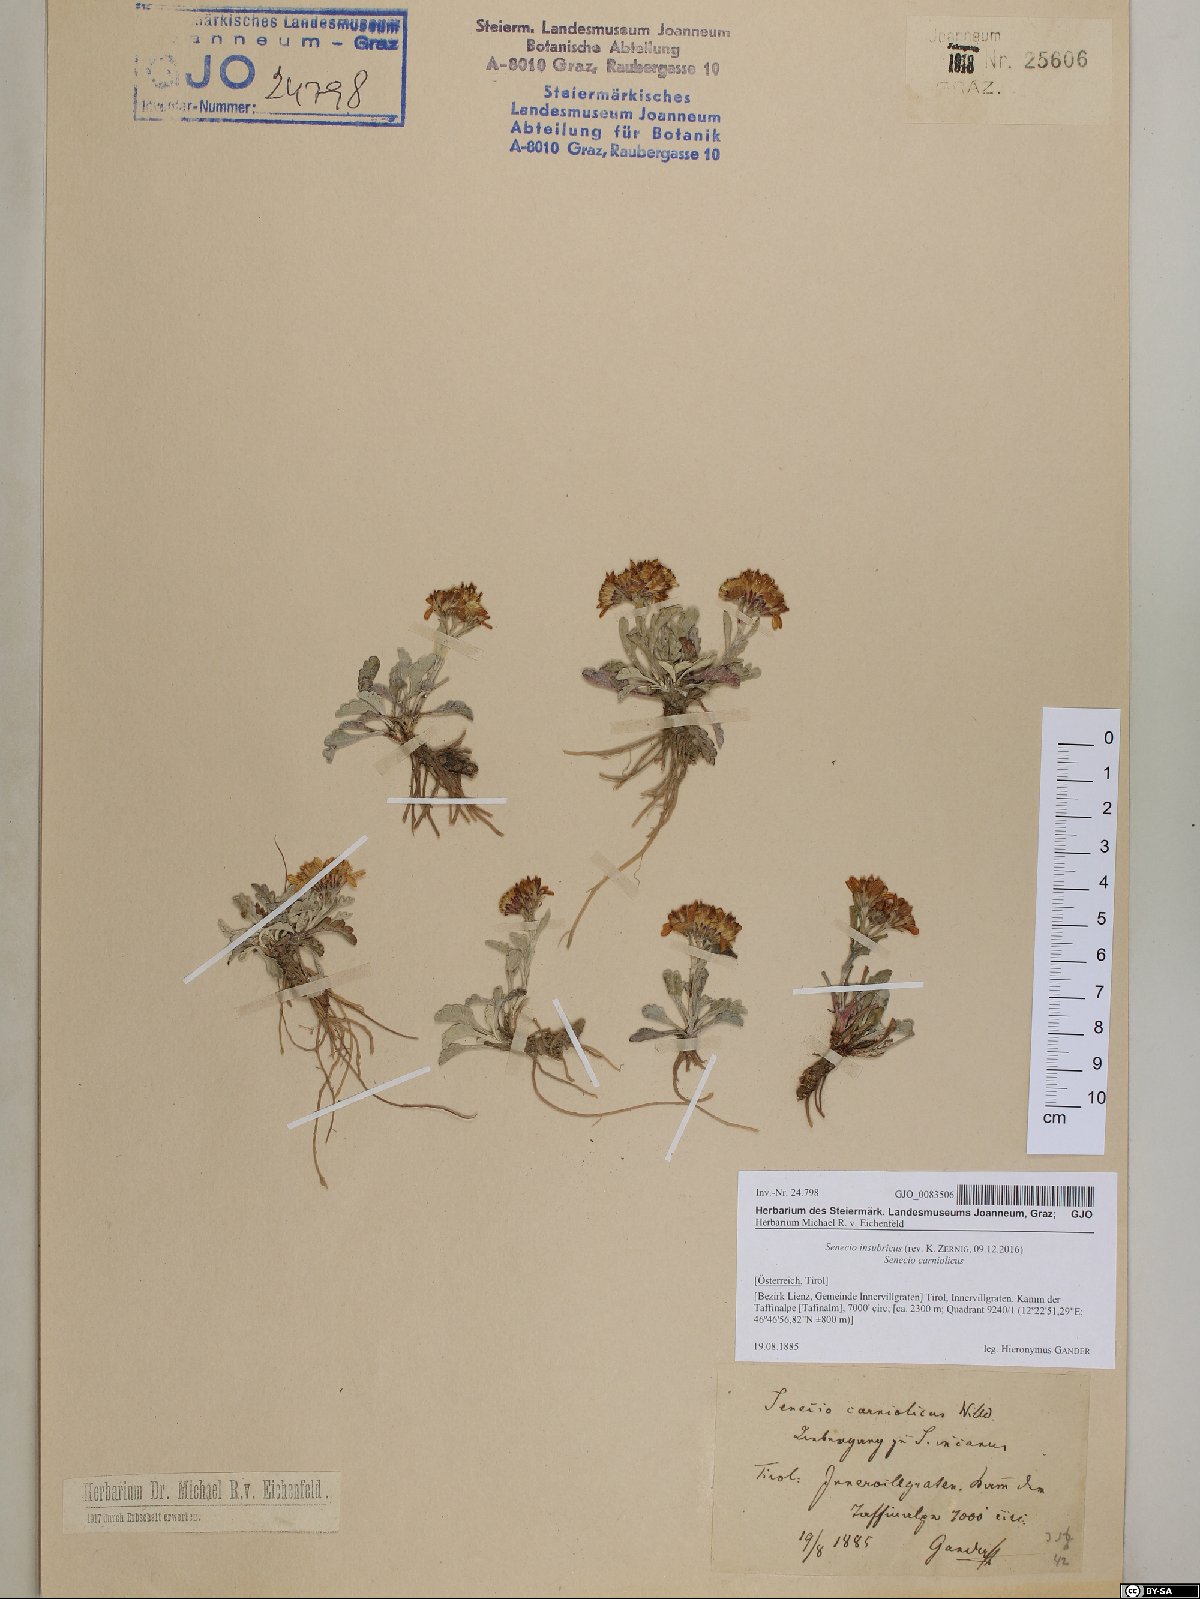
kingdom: Plantae
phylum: Tracheophyta
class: Magnoliopsida
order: Asterales
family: Asteraceae
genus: Jacobaea
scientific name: Jacobaea insubrica
